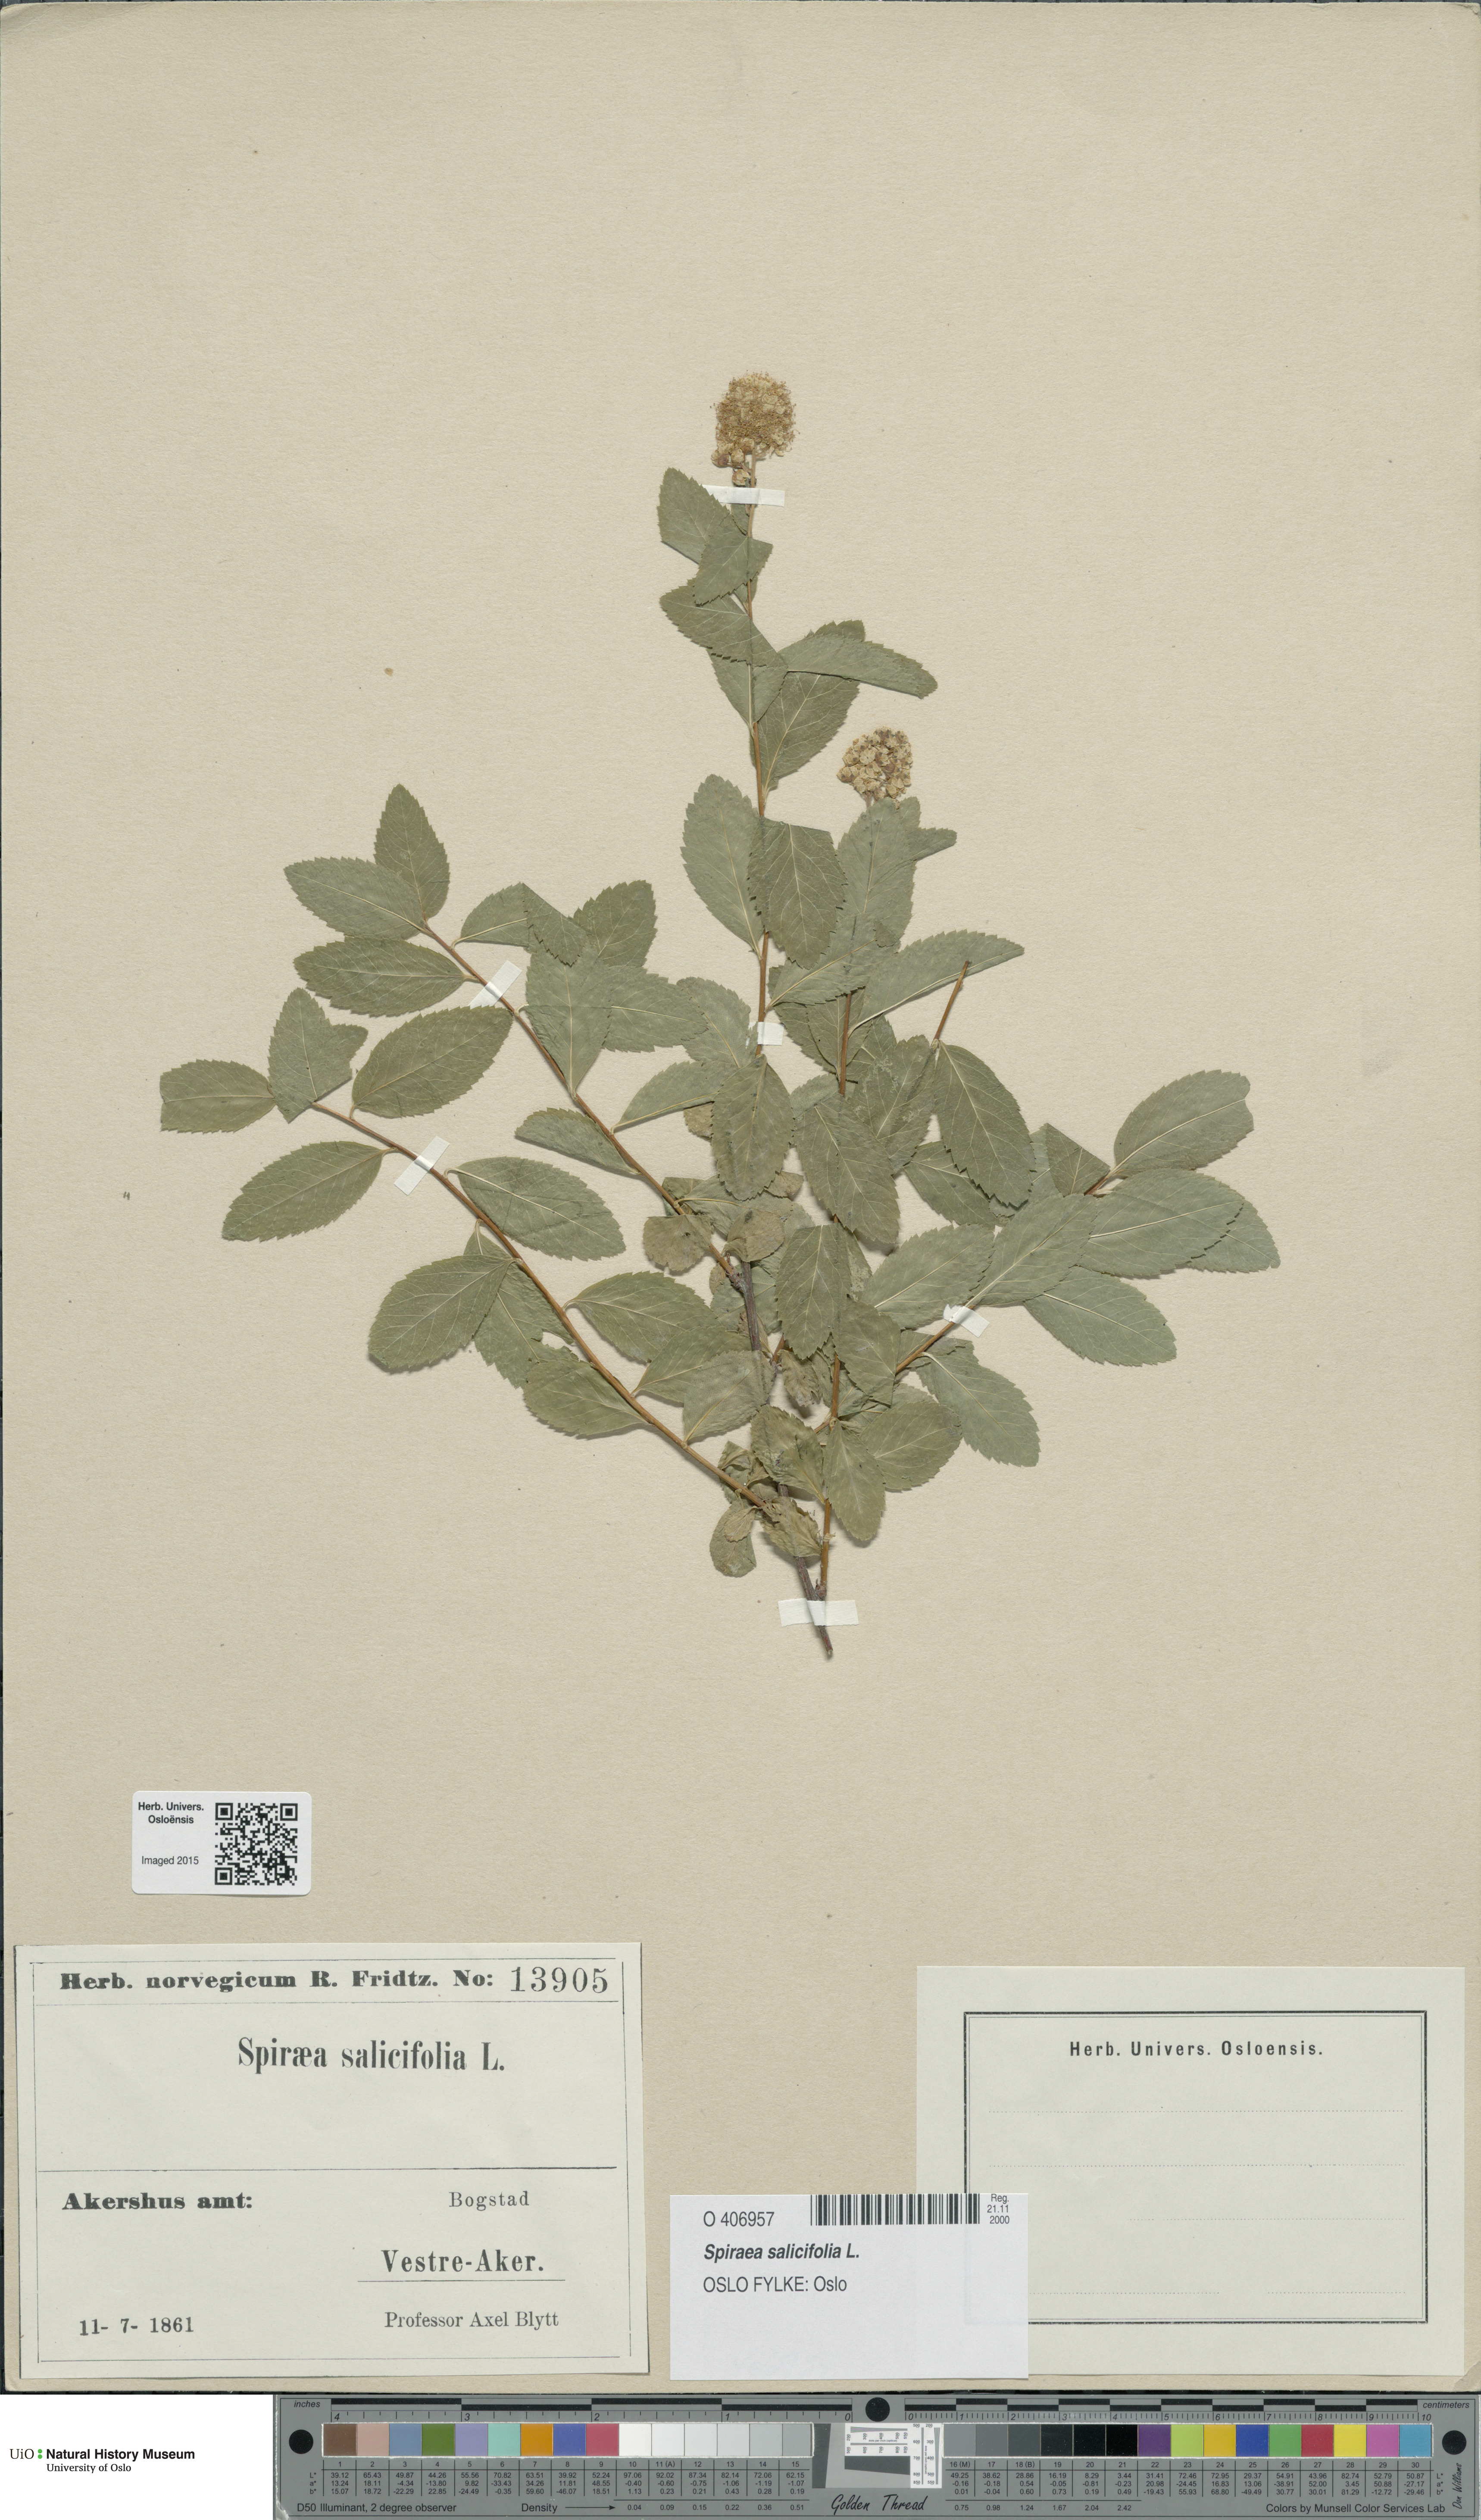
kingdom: Plantae
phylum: Tracheophyta
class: Magnoliopsida
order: Rosales
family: Rosaceae
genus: Spiraea
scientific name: Spiraea salicifolia
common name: Bridewort
